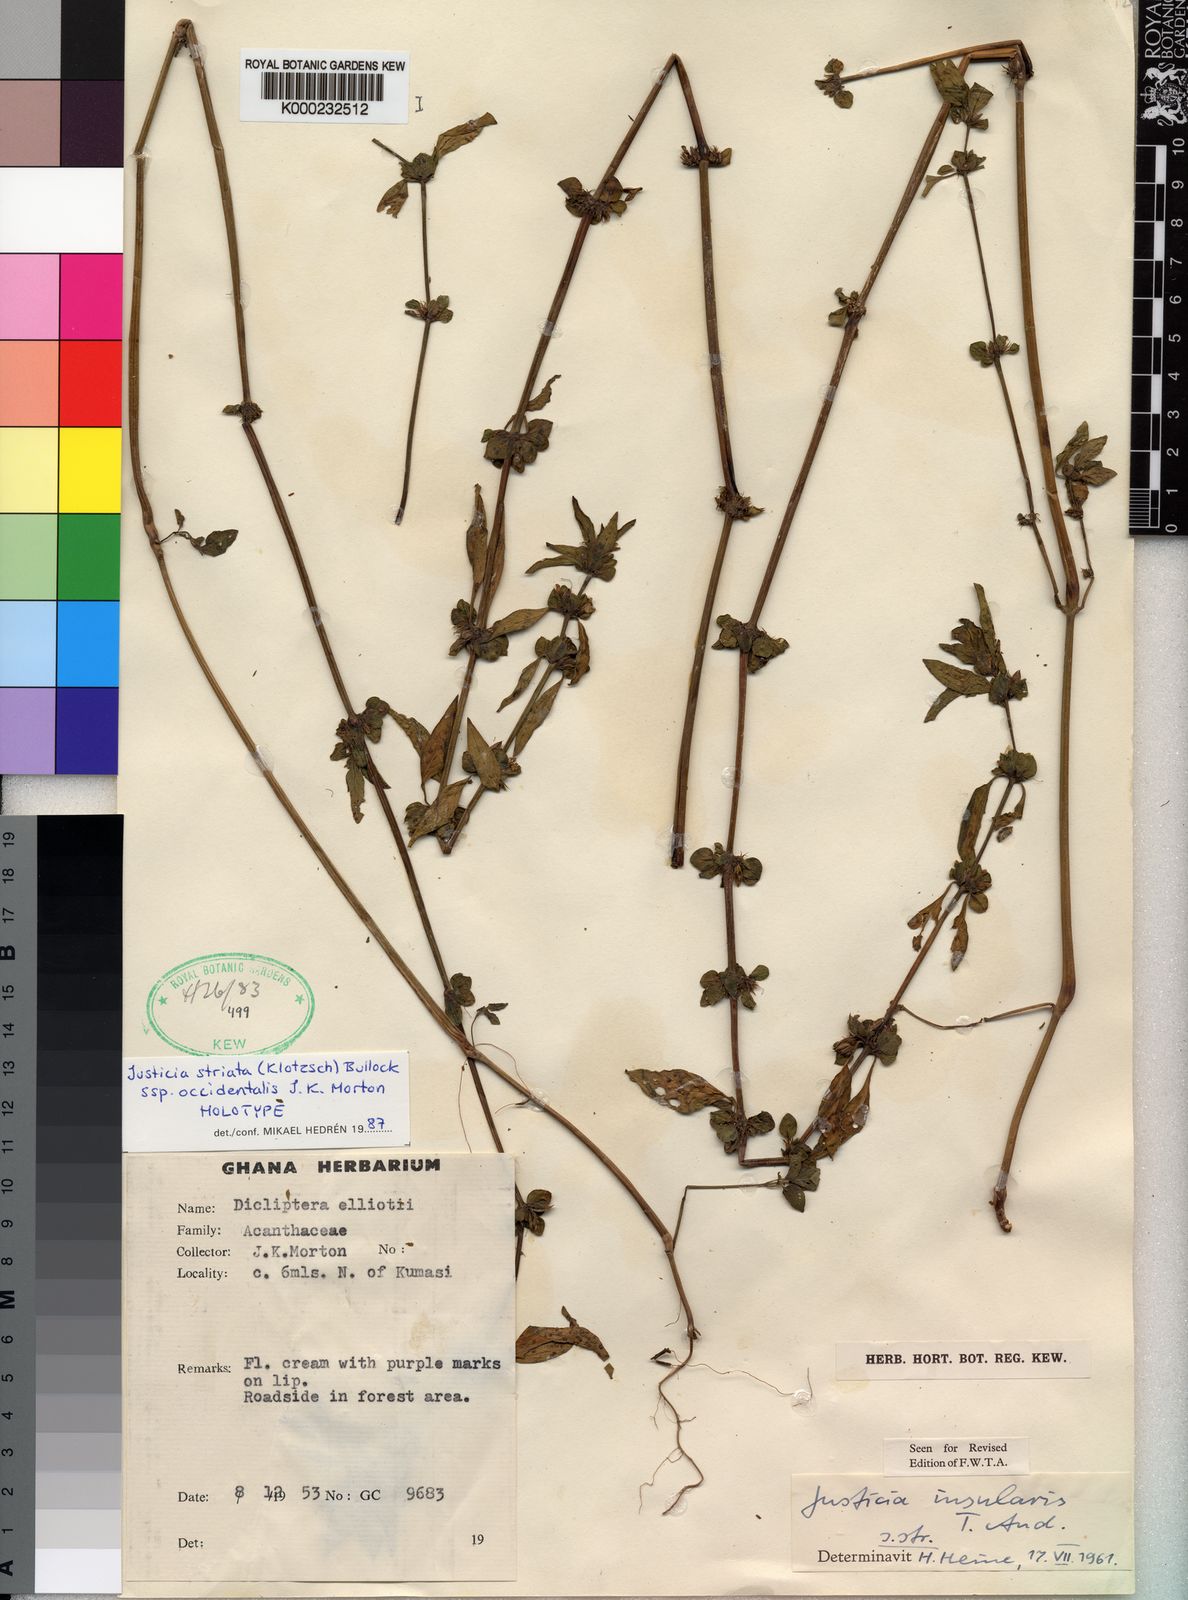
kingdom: Plantae
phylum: Tracheophyta
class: Magnoliopsida
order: Lamiales
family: Acanthaceae
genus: Justicia
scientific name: Justicia
